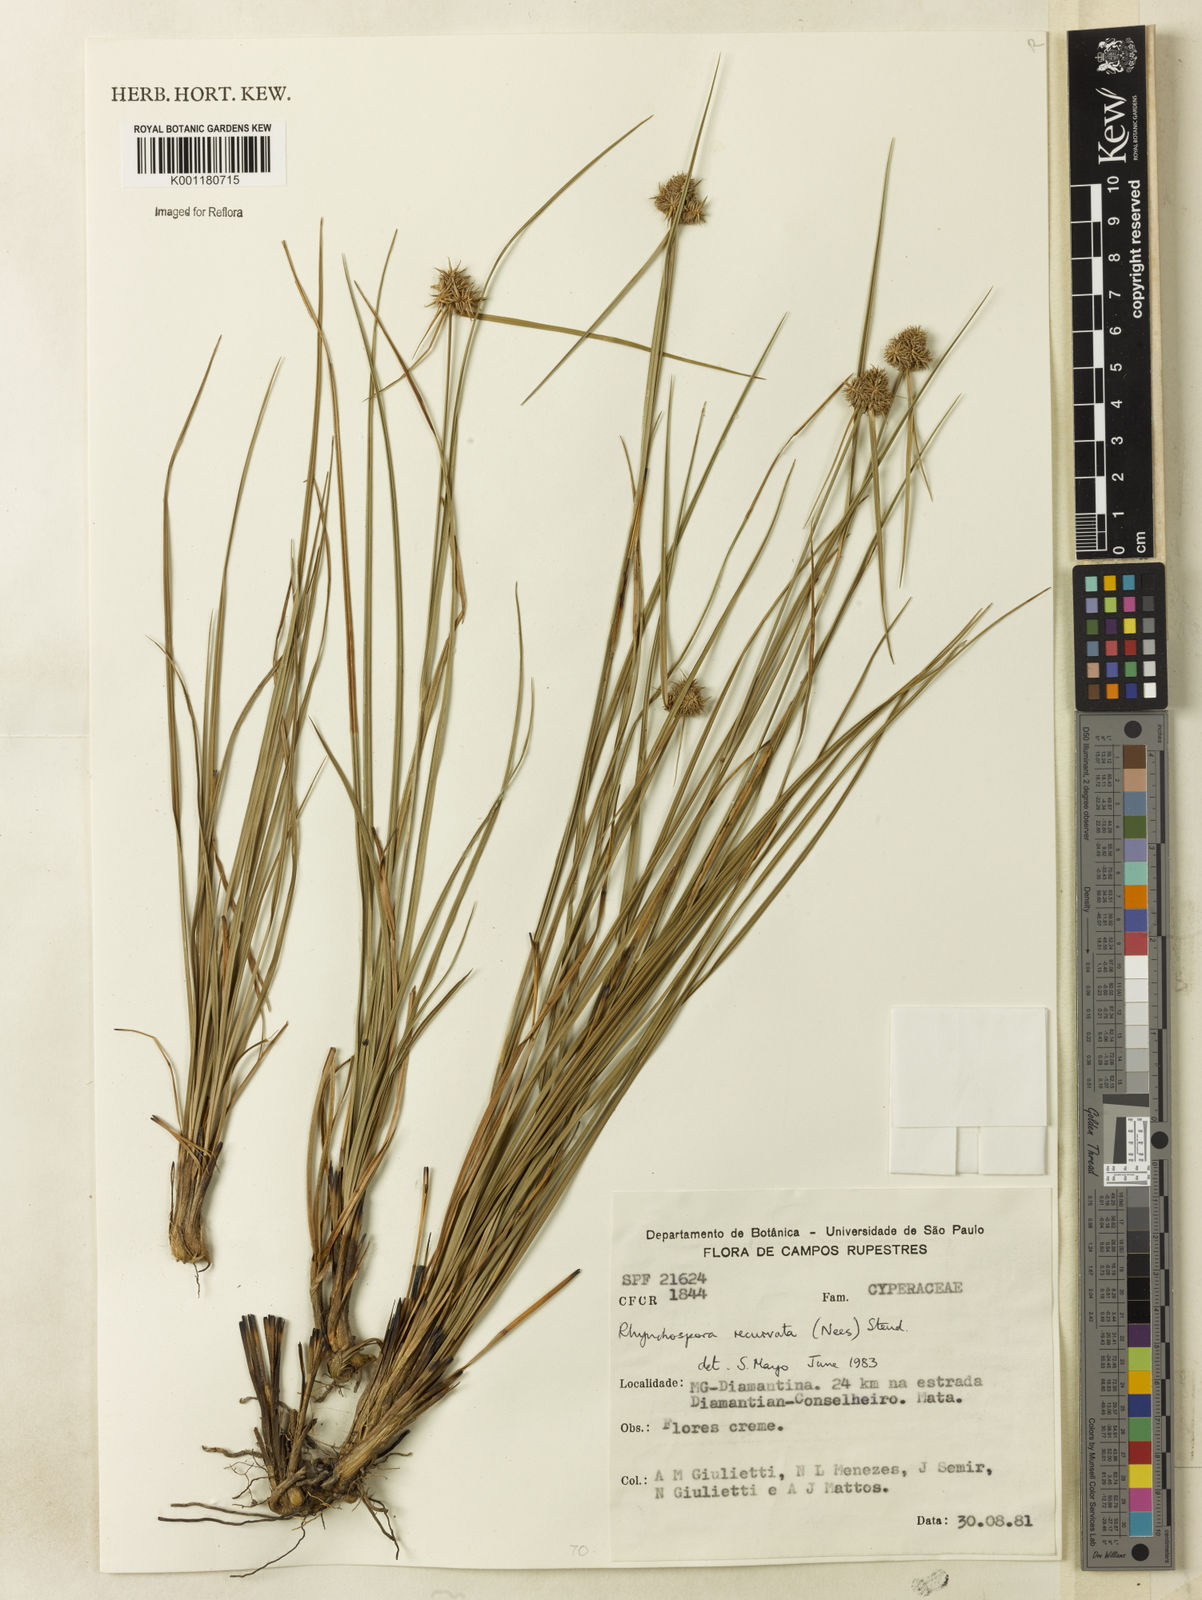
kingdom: Plantae
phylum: Tracheophyta
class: Liliopsida
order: Poales
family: Cyperaceae
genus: Rhynchospora
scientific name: Rhynchospora recurvata
